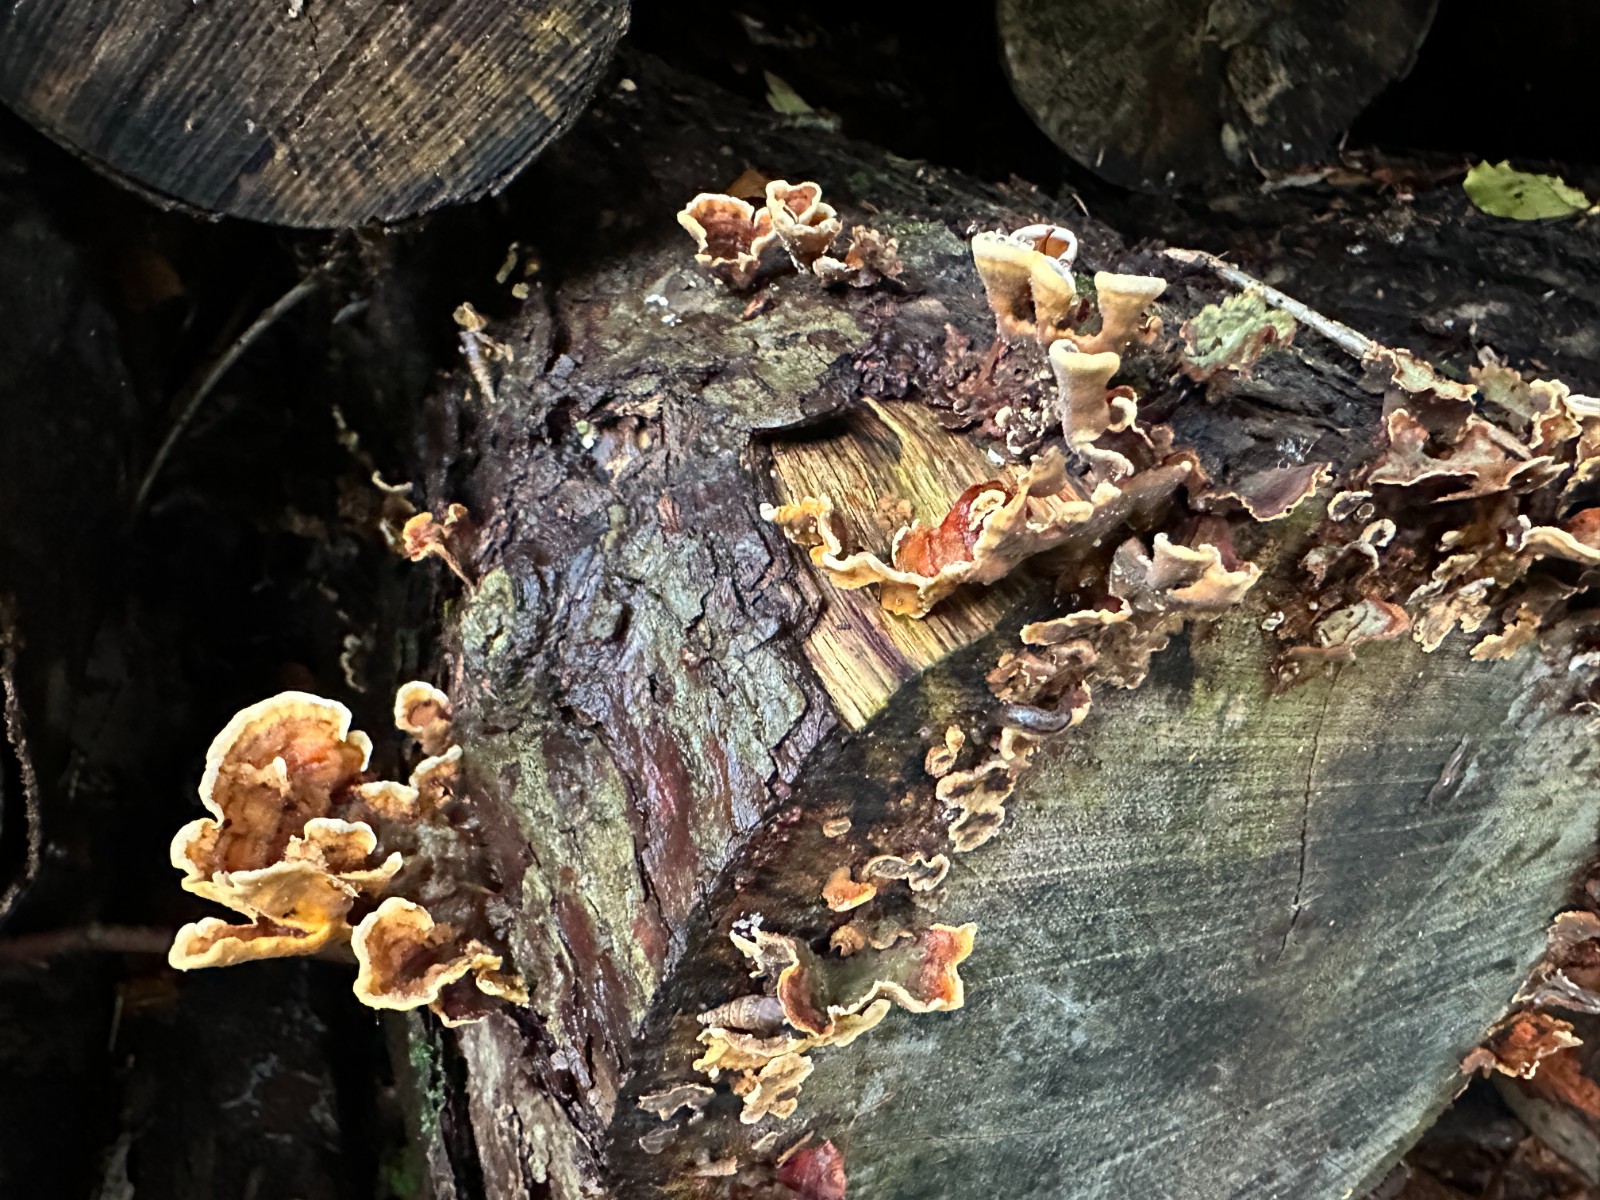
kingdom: Fungi
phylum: Basidiomycota
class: Agaricomycetes
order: Russulales
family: Stereaceae
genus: Stereum
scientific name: Stereum hirsutum
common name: håret lædersvamp
